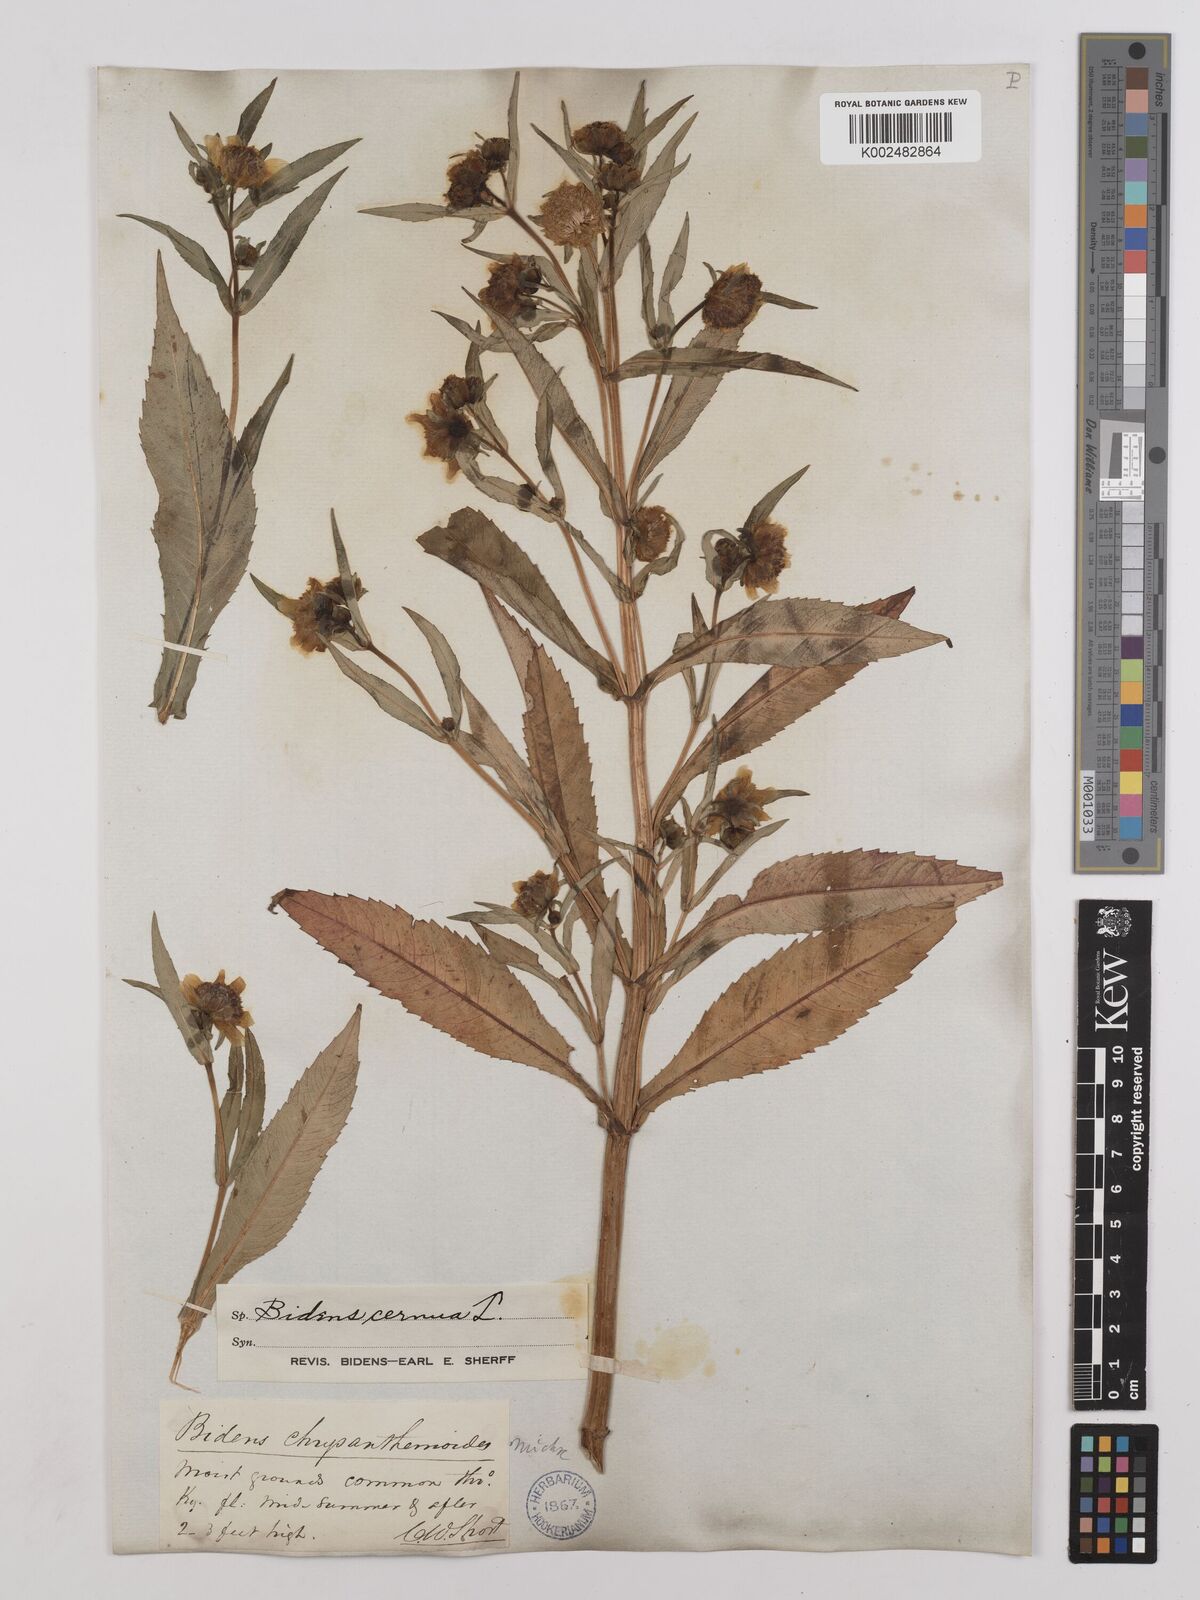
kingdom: Plantae
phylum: Tracheophyta
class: Magnoliopsida
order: Asterales
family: Asteraceae
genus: Bidens
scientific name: Bidens
